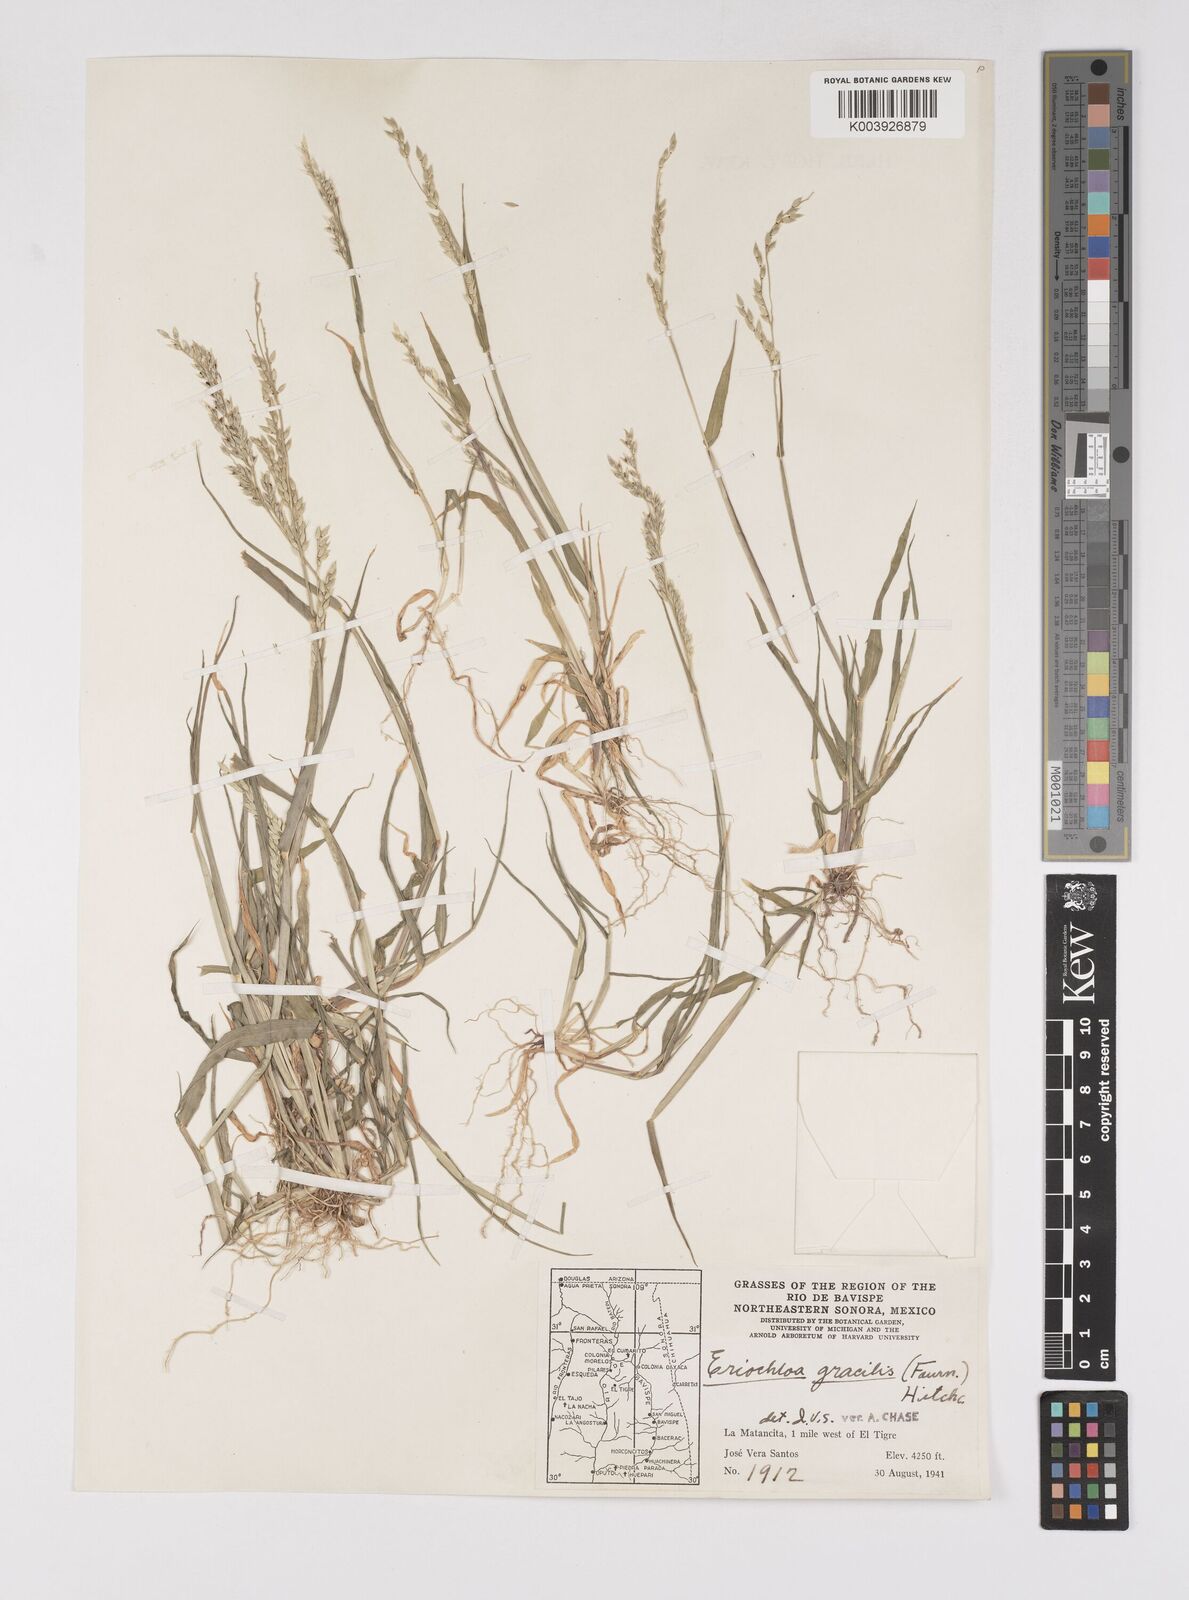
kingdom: Plantae
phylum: Tracheophyta
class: Liliopsida
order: Poales
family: Poaceae
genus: Eriochloa
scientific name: Eriochloa acuminata
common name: Southwestern cup grass
